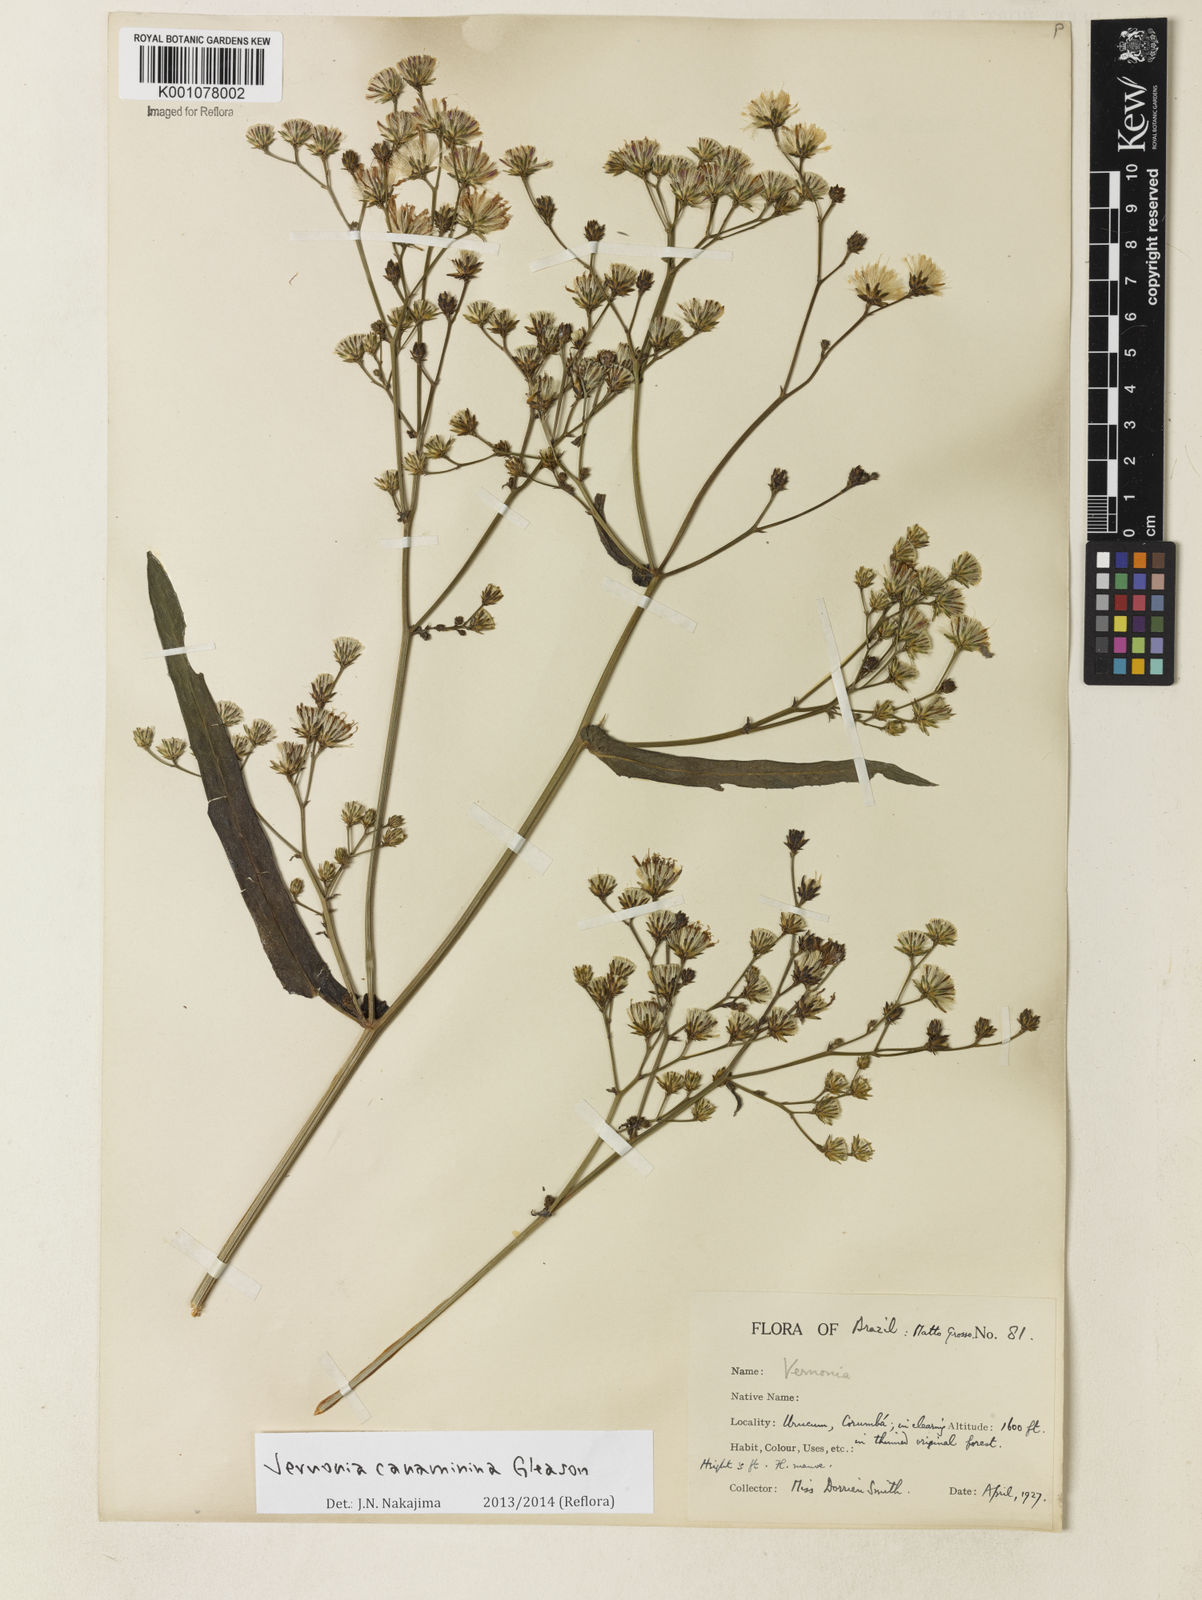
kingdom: Plantae
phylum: Tracheophyta
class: Magnoliopsida
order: Asterales
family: Asteraceae
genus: Vernonanthura
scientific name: Vernonanthura amplexicaulis
